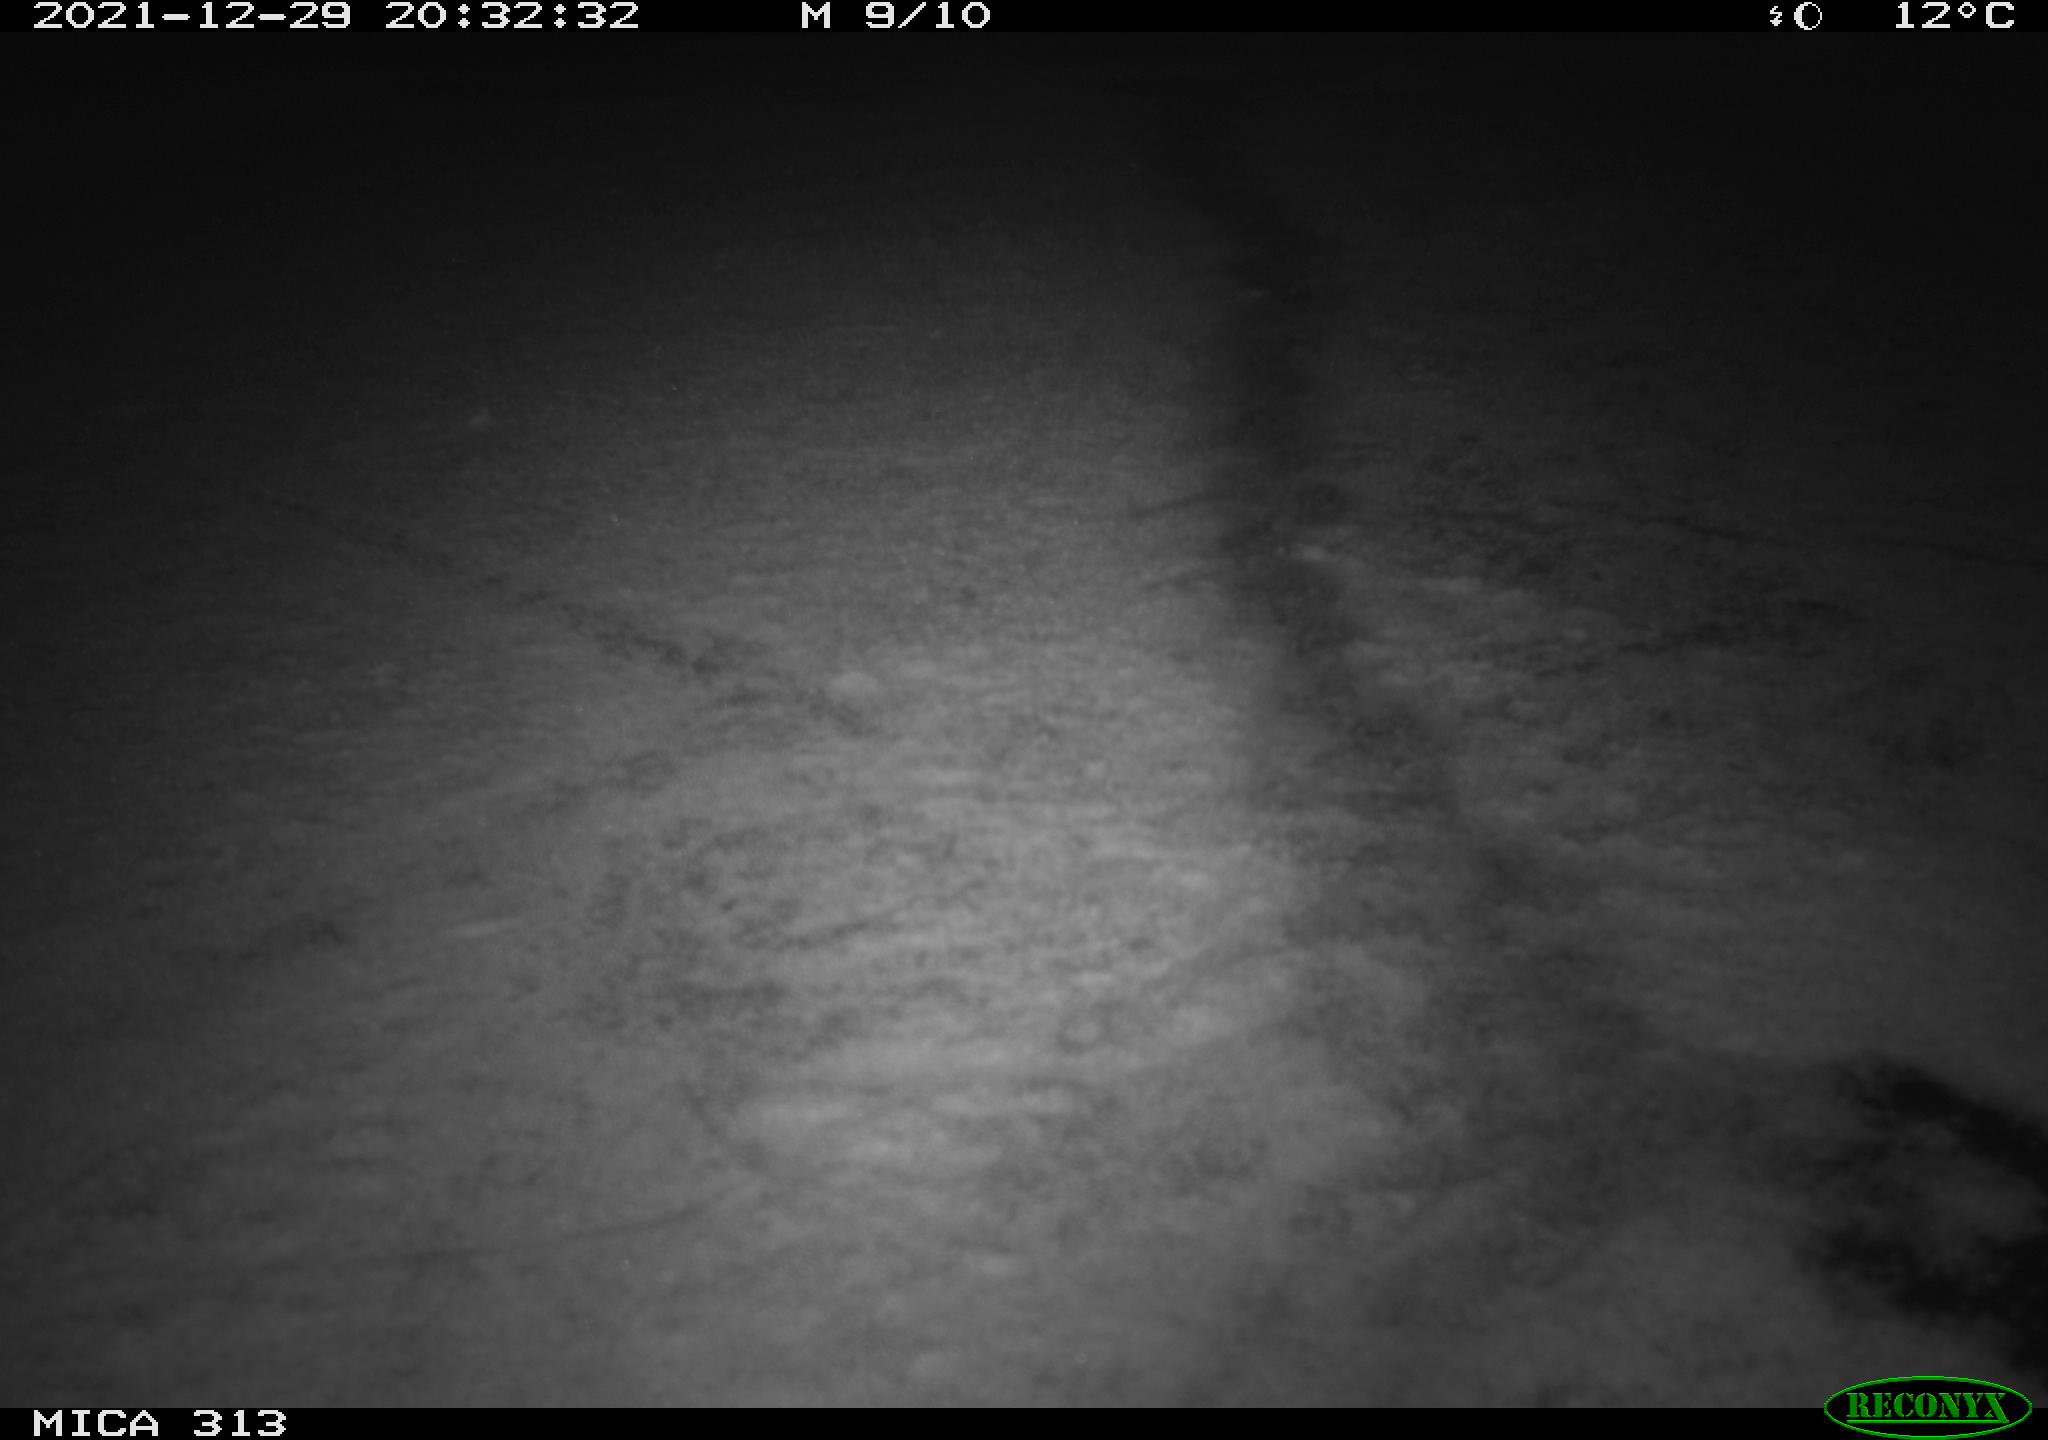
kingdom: Animalia
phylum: Chordata
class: Aves
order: Gruiformes
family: Rallidae
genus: Gallinula
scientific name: Gallinula chloropus
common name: Common moorhen
